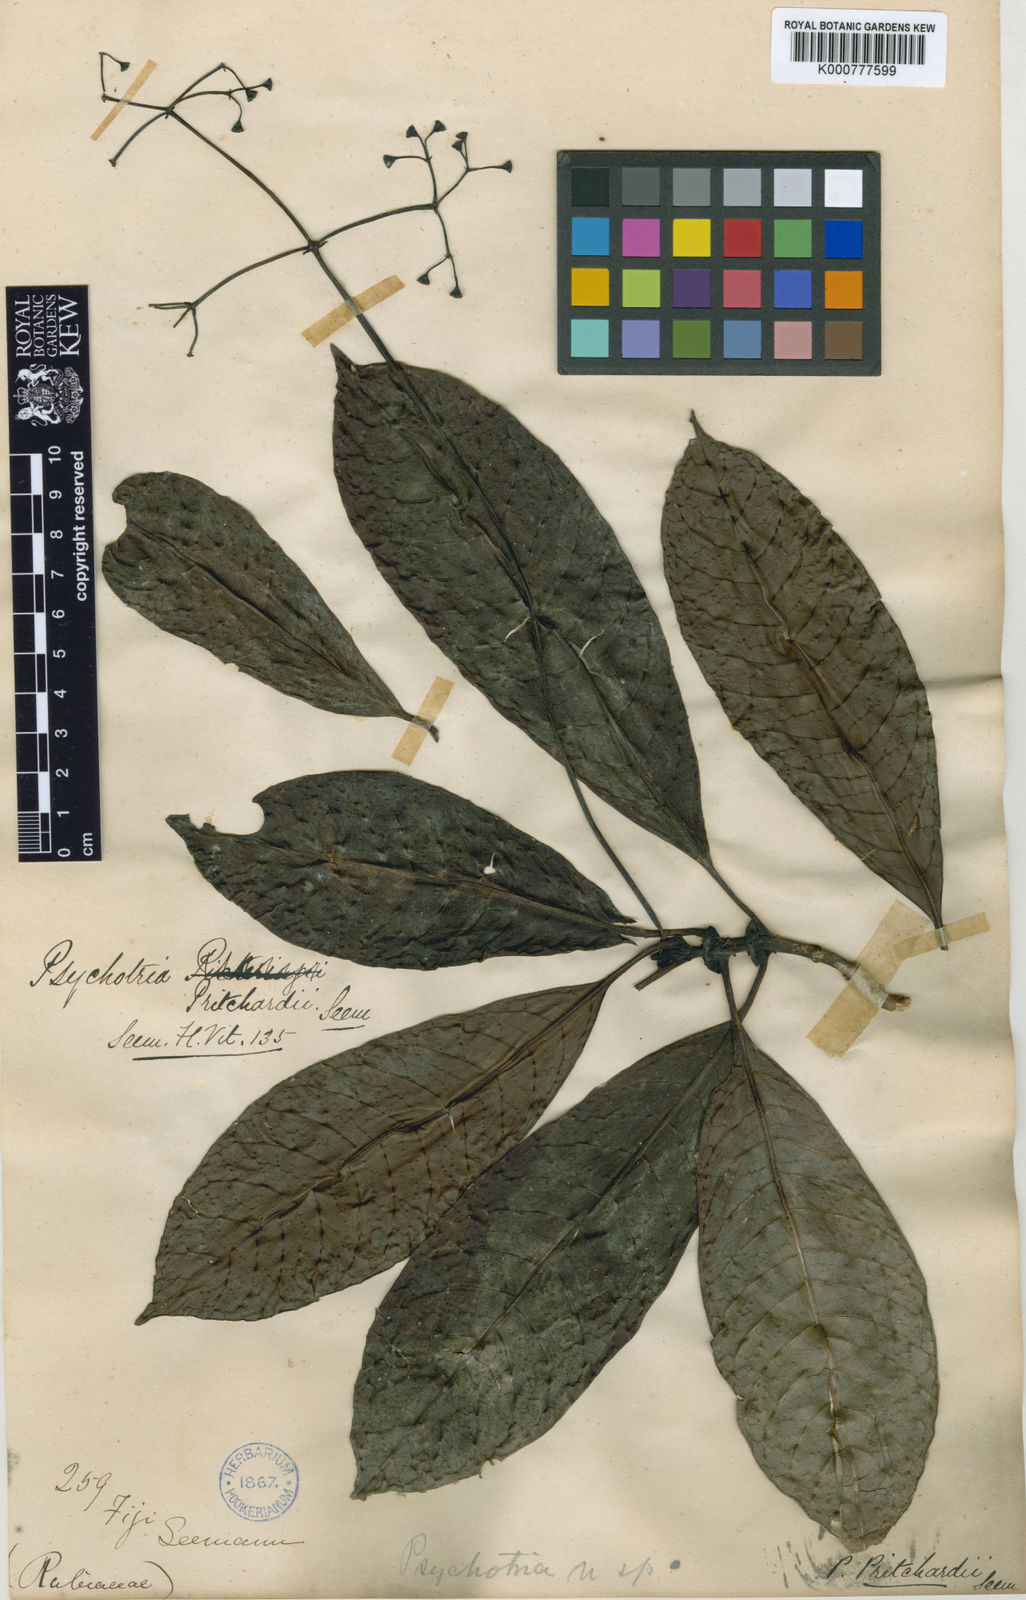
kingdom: Plantae
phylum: Tracheophyta
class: Magnoliopsida
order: Gentianales
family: Rubiaceae
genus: Psychotria
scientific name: Psychotria pritchardii
